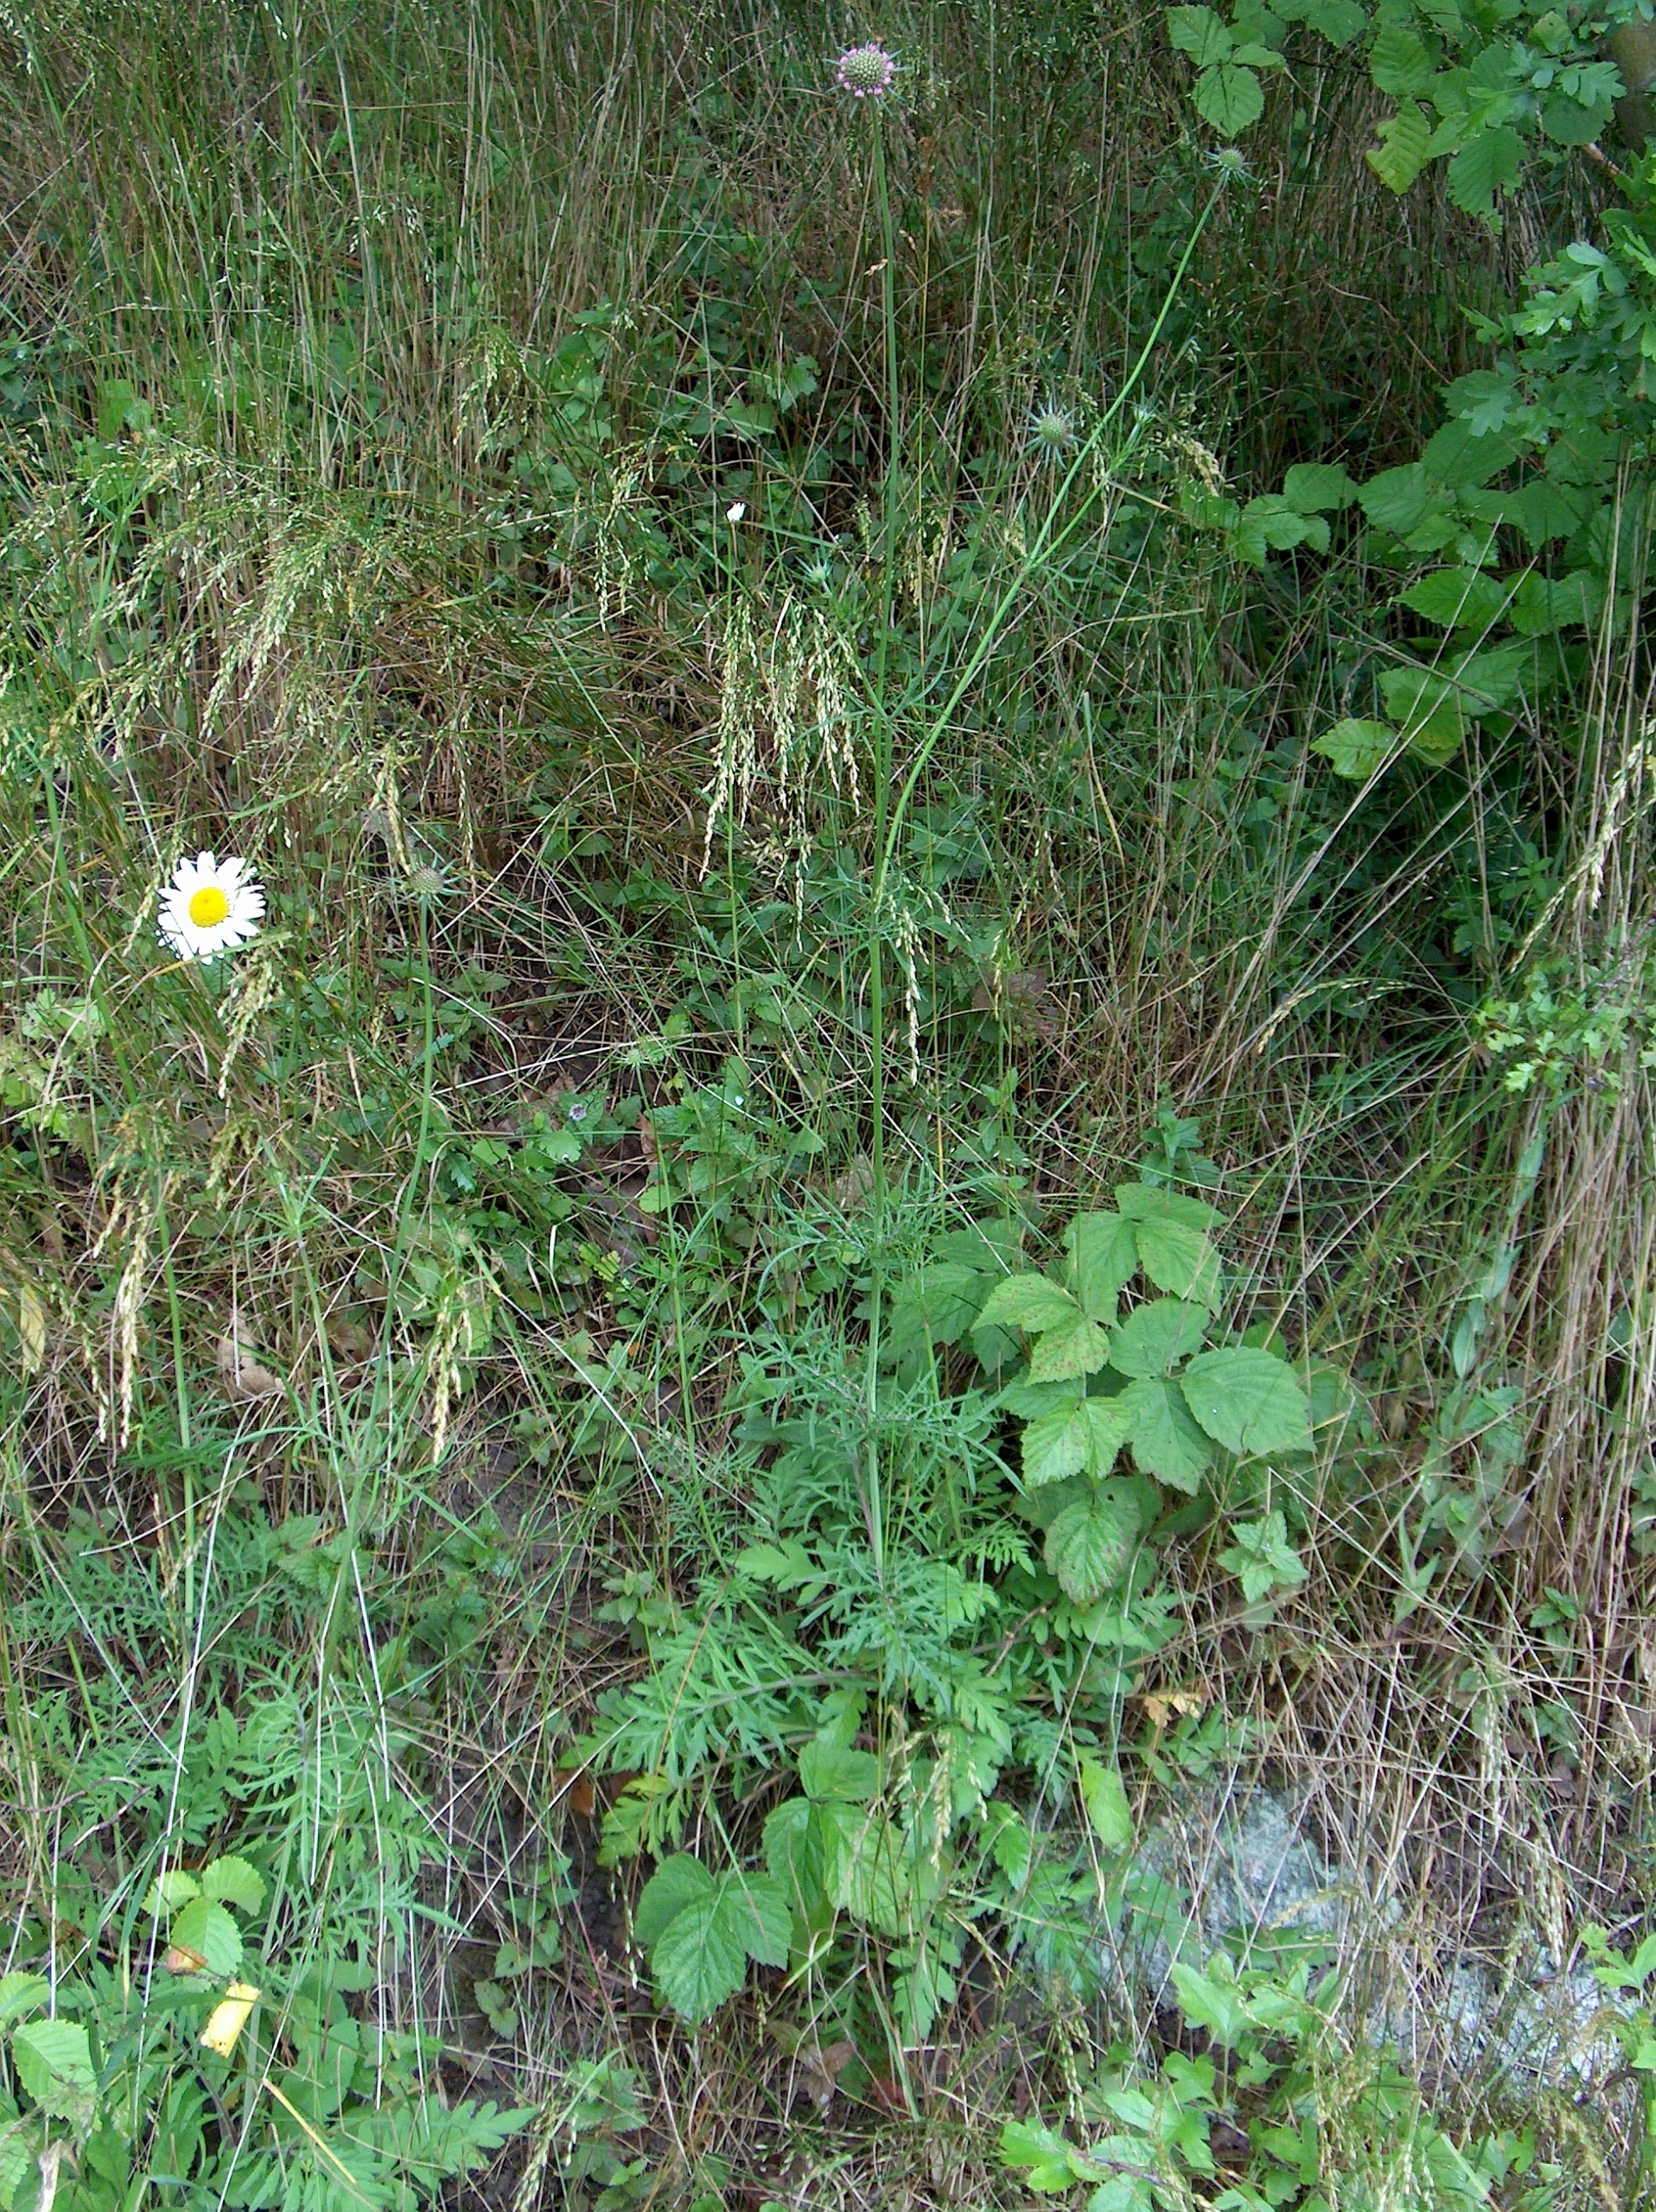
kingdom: Plantae
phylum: Tracheophyta
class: Magnoliopsida
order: Dipsacales
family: Caprifoliaceae
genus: Scabiosa
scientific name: Scabiosa columbaria
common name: Due-skabiose
